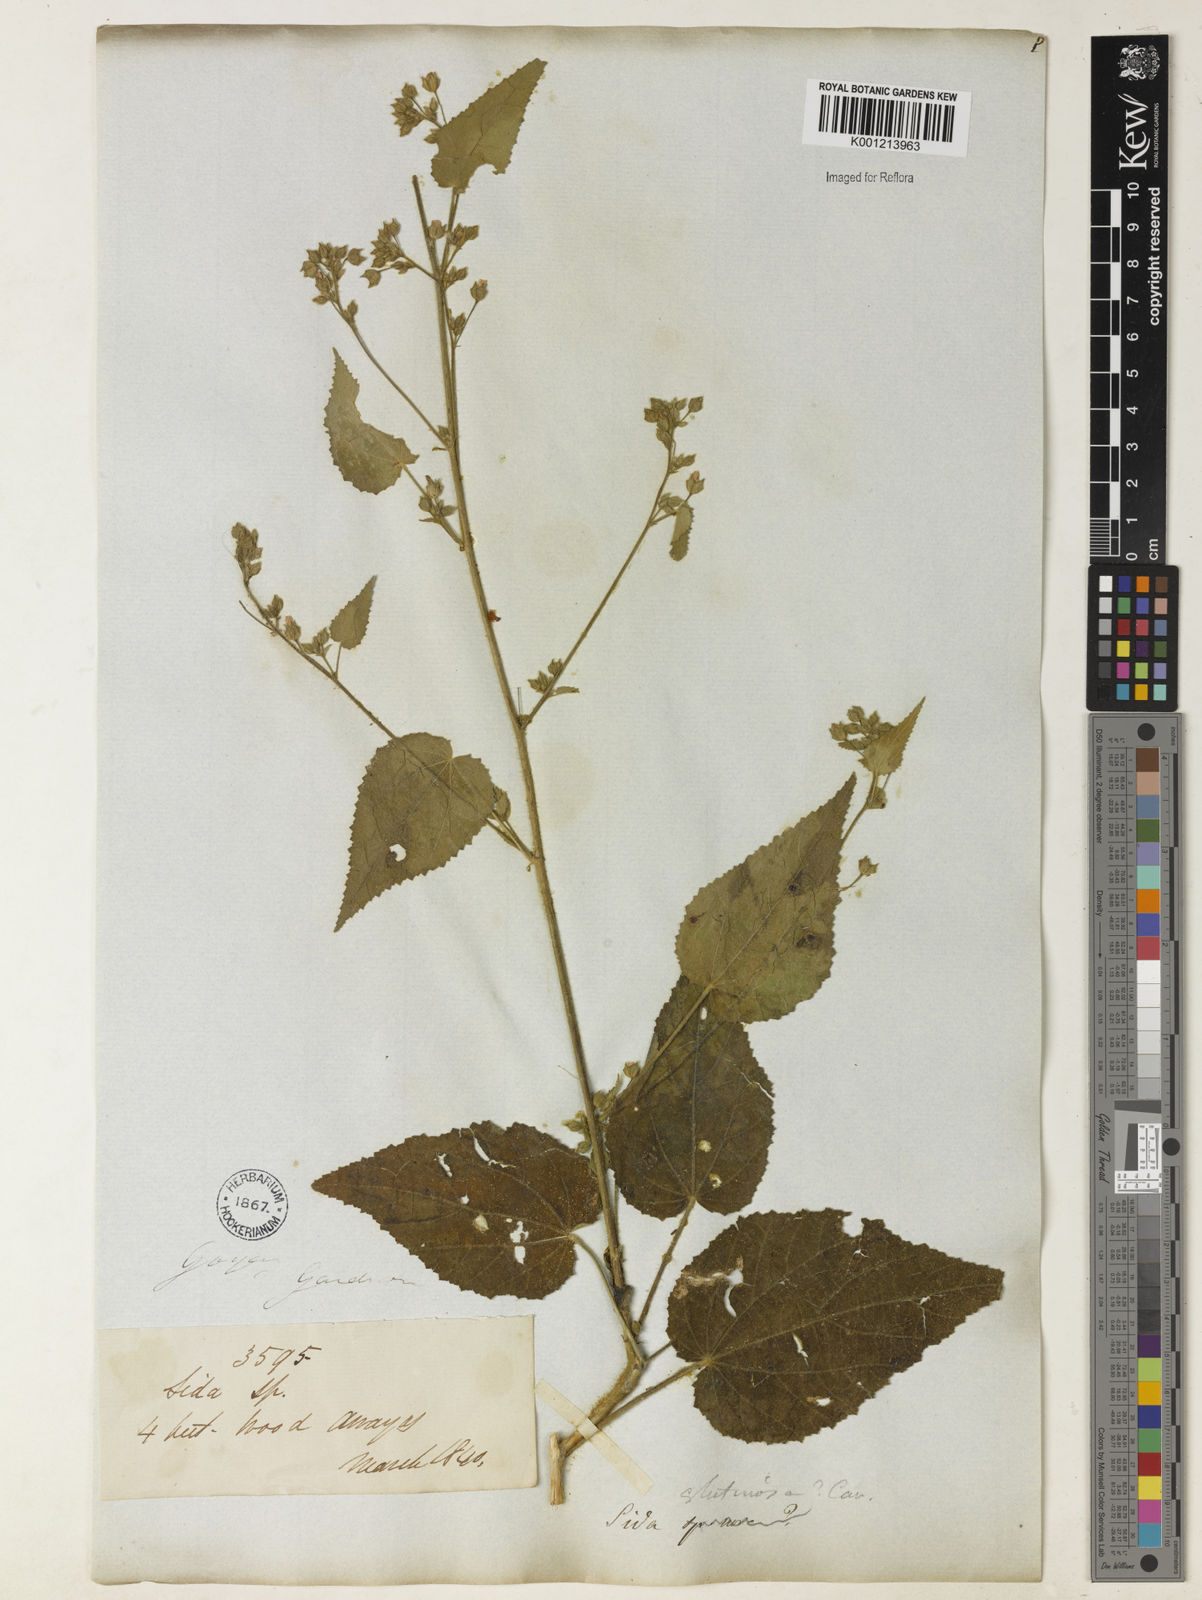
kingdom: Plantae
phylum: Tracheophyta
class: Magnoliopsida
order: Malvales
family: Malvaceae
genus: Sida
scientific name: Sida glutinosa
